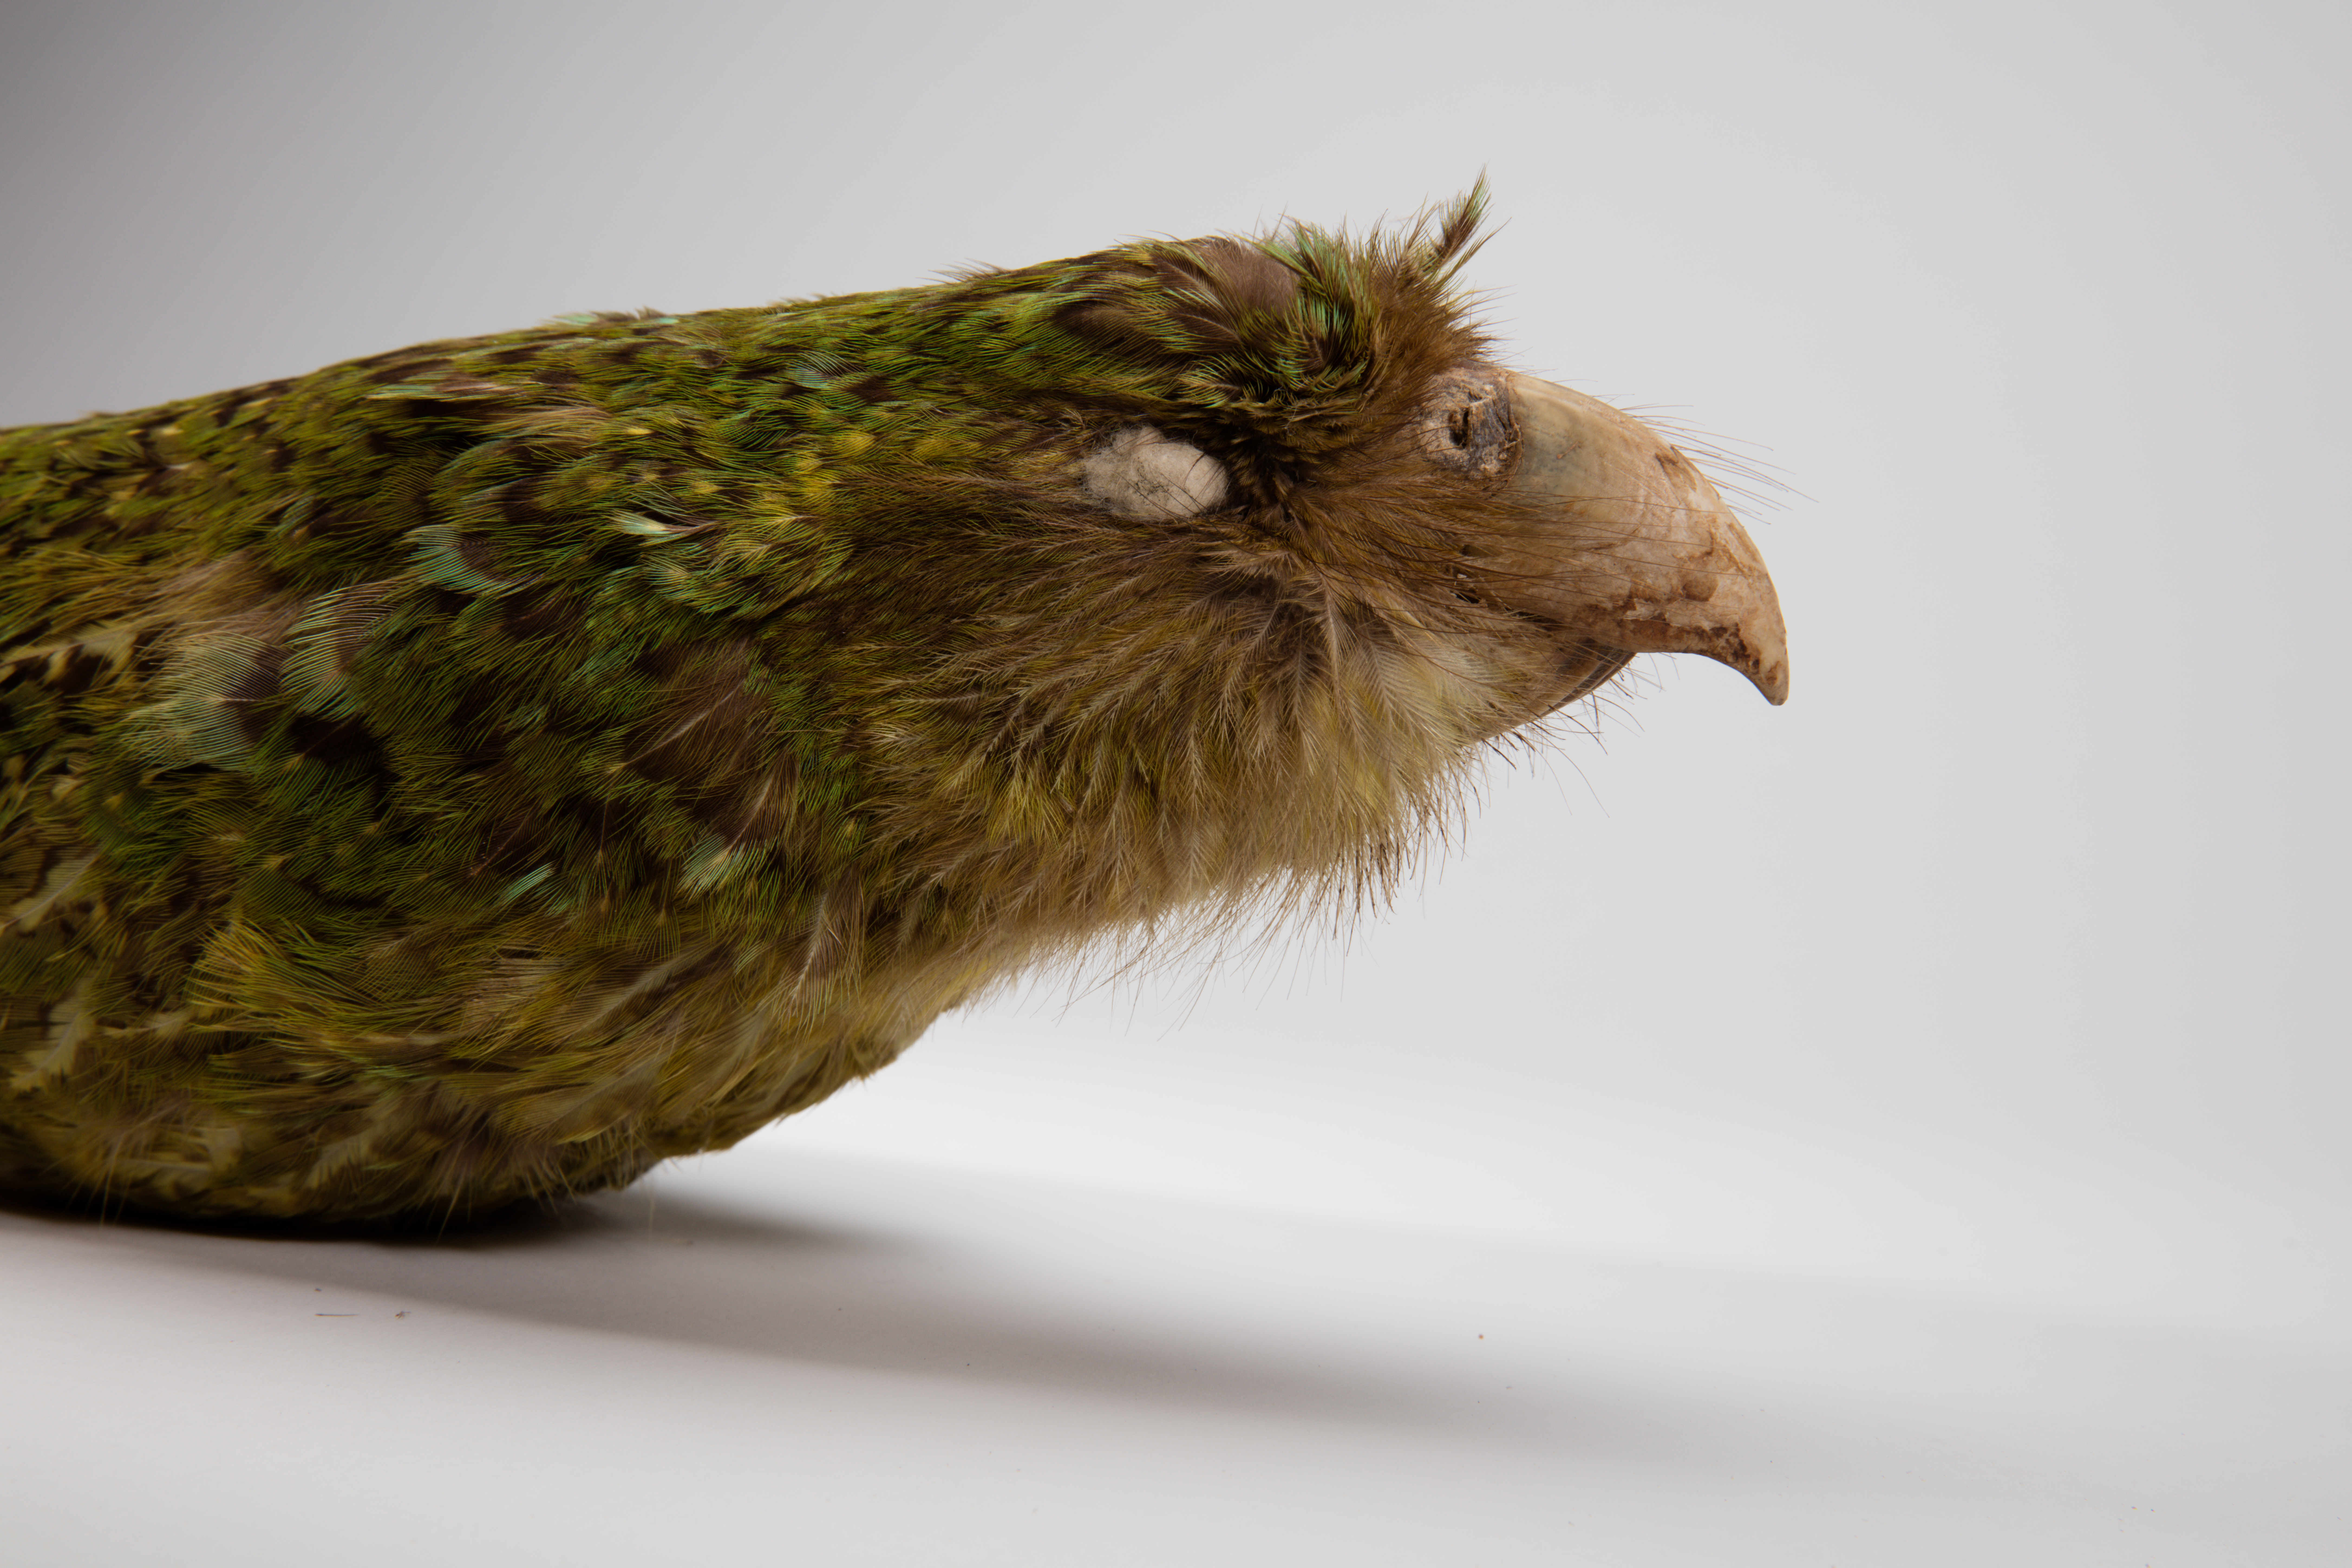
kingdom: Animalia
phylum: Chordata
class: Aves
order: Psittaciformes
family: Psittacidae
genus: Strigops
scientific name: Strigops habroptila
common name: Kakapo
